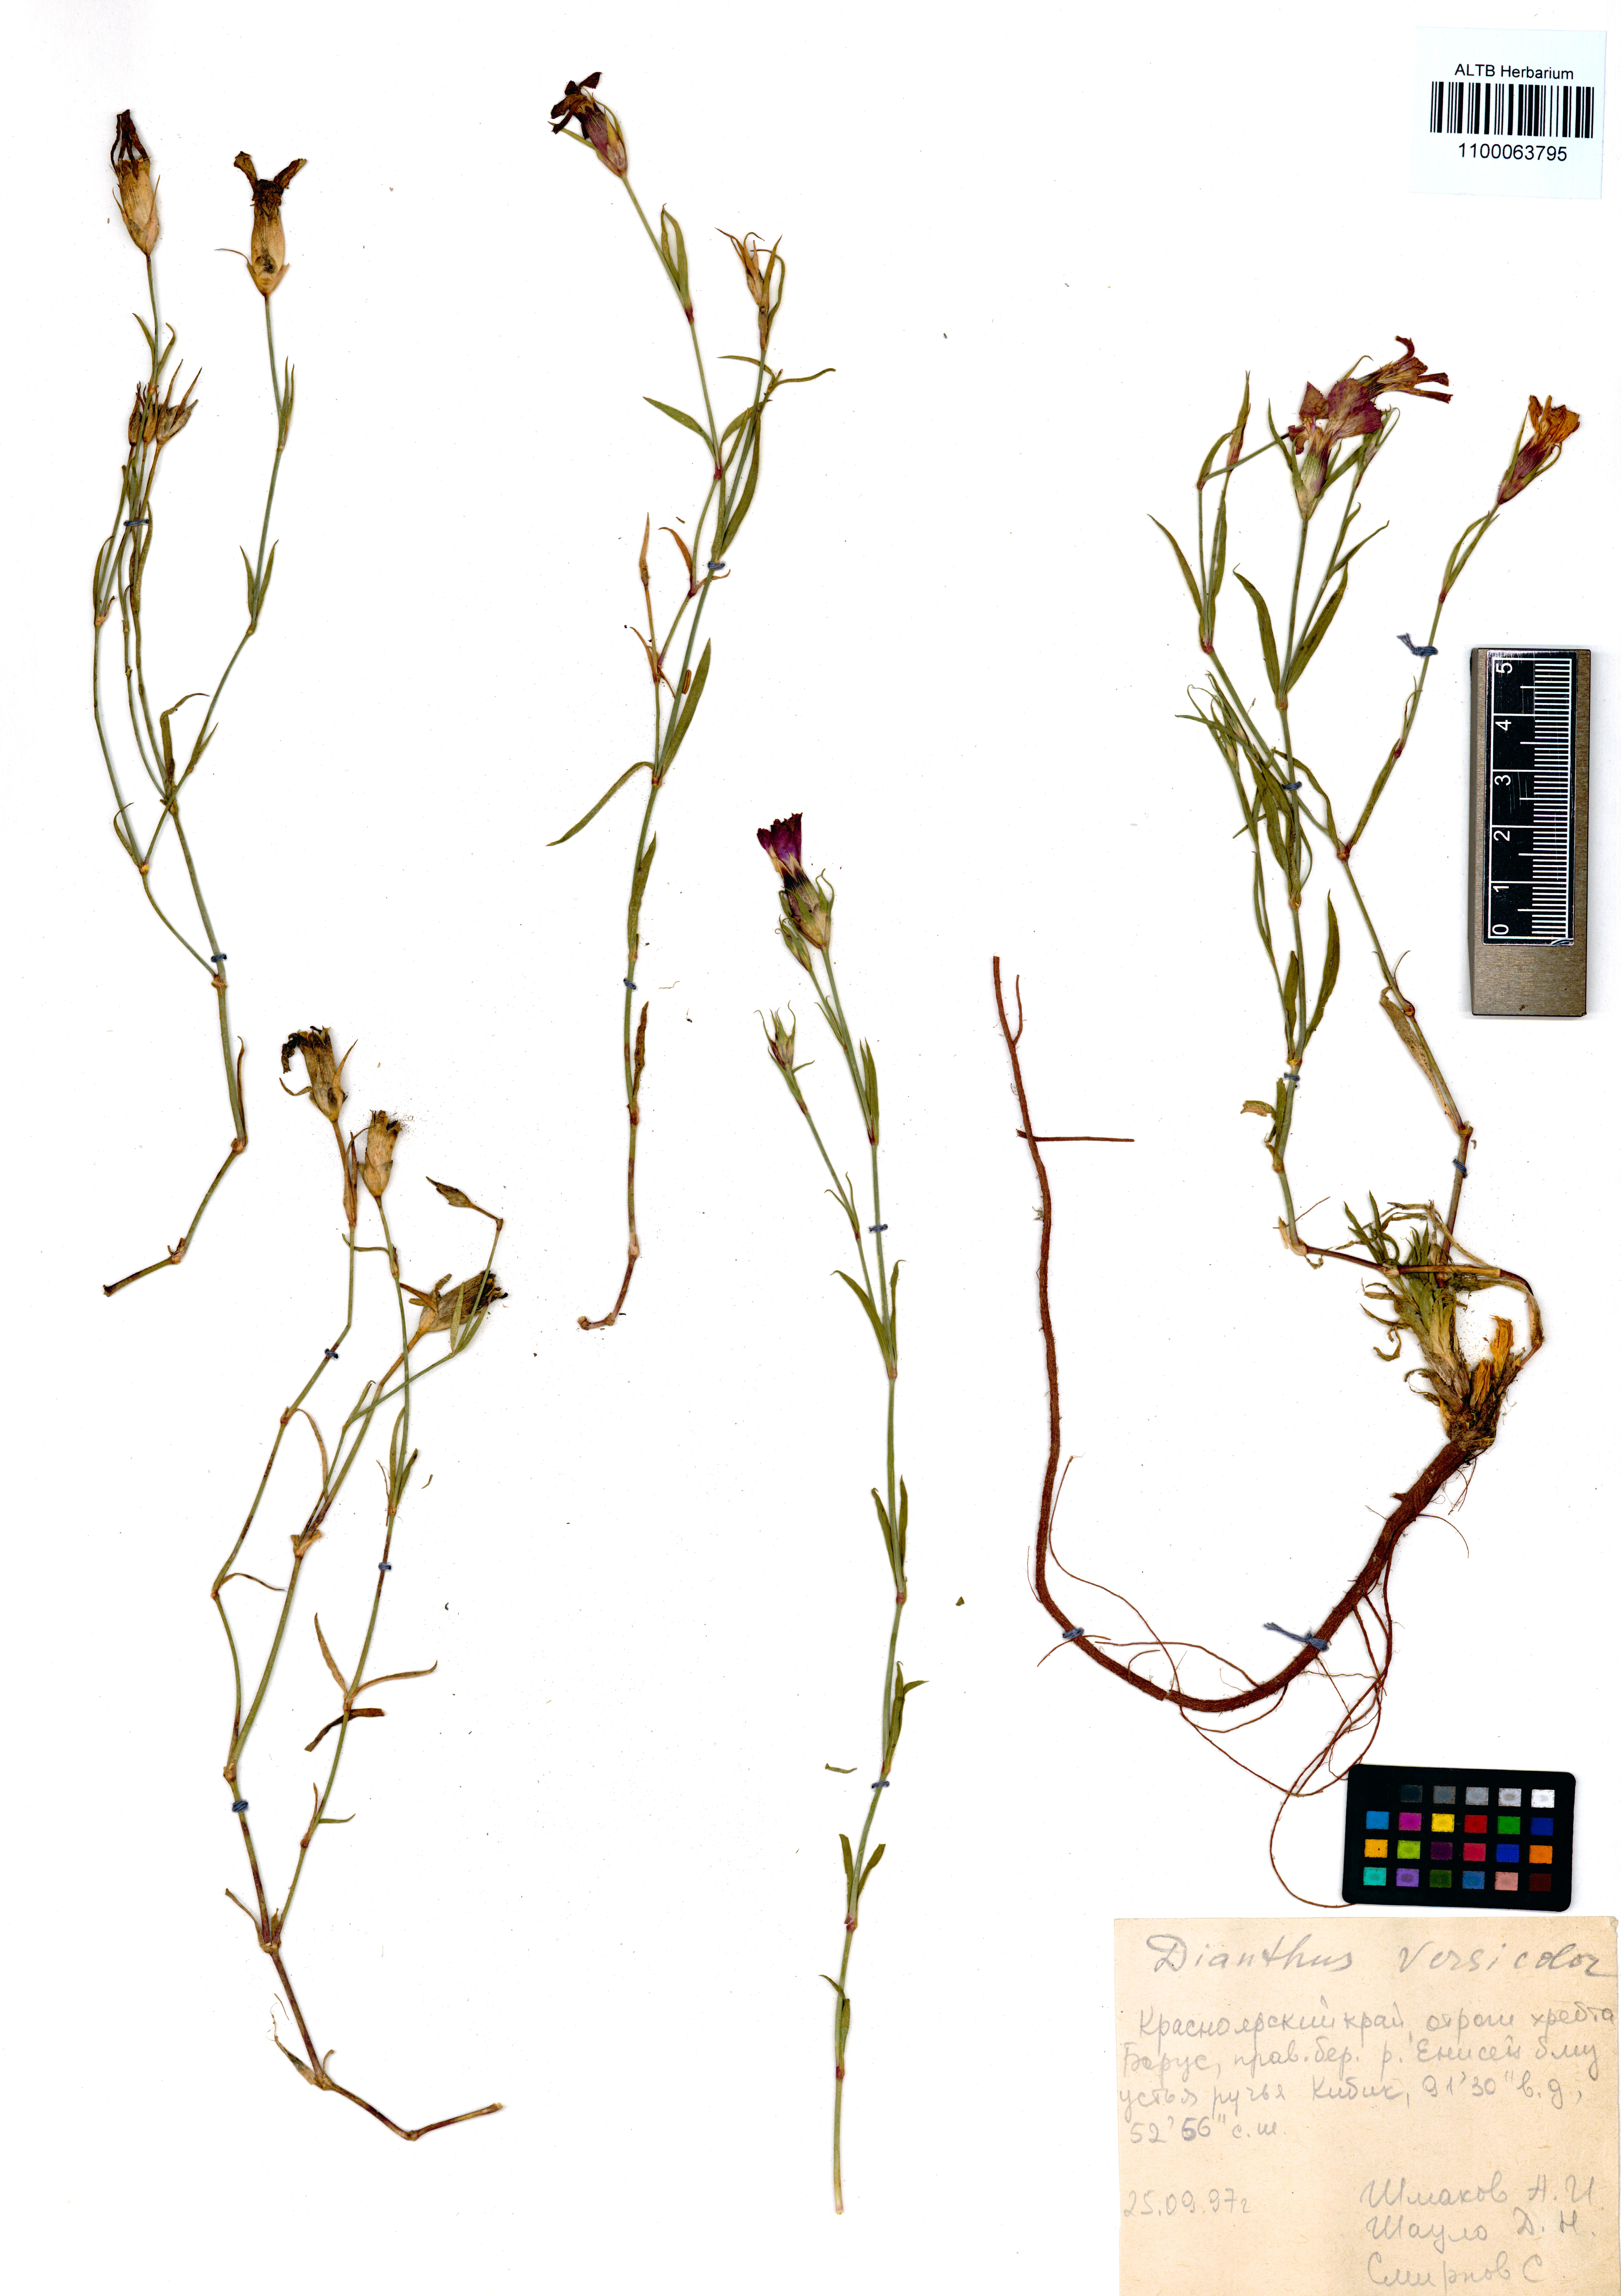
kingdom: Plantae
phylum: Tracheophyta
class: Magnoliopsida
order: Caryophyllales
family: Caryophyllaceae
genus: Dianthus
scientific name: Dianthus chinensis
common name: Rainbow pink
